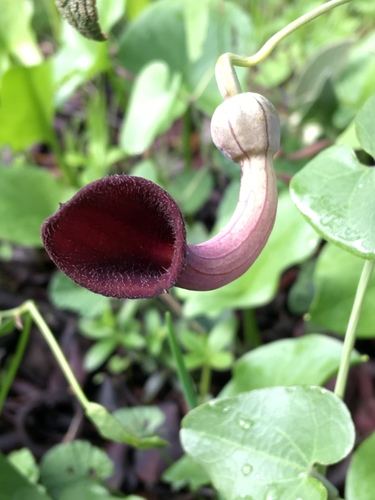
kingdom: Plantae
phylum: Tracheophyta
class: Magnoliopsida
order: Piperales
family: Aristolochiaceae
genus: Aristolochia
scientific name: Aristolochia baetica
